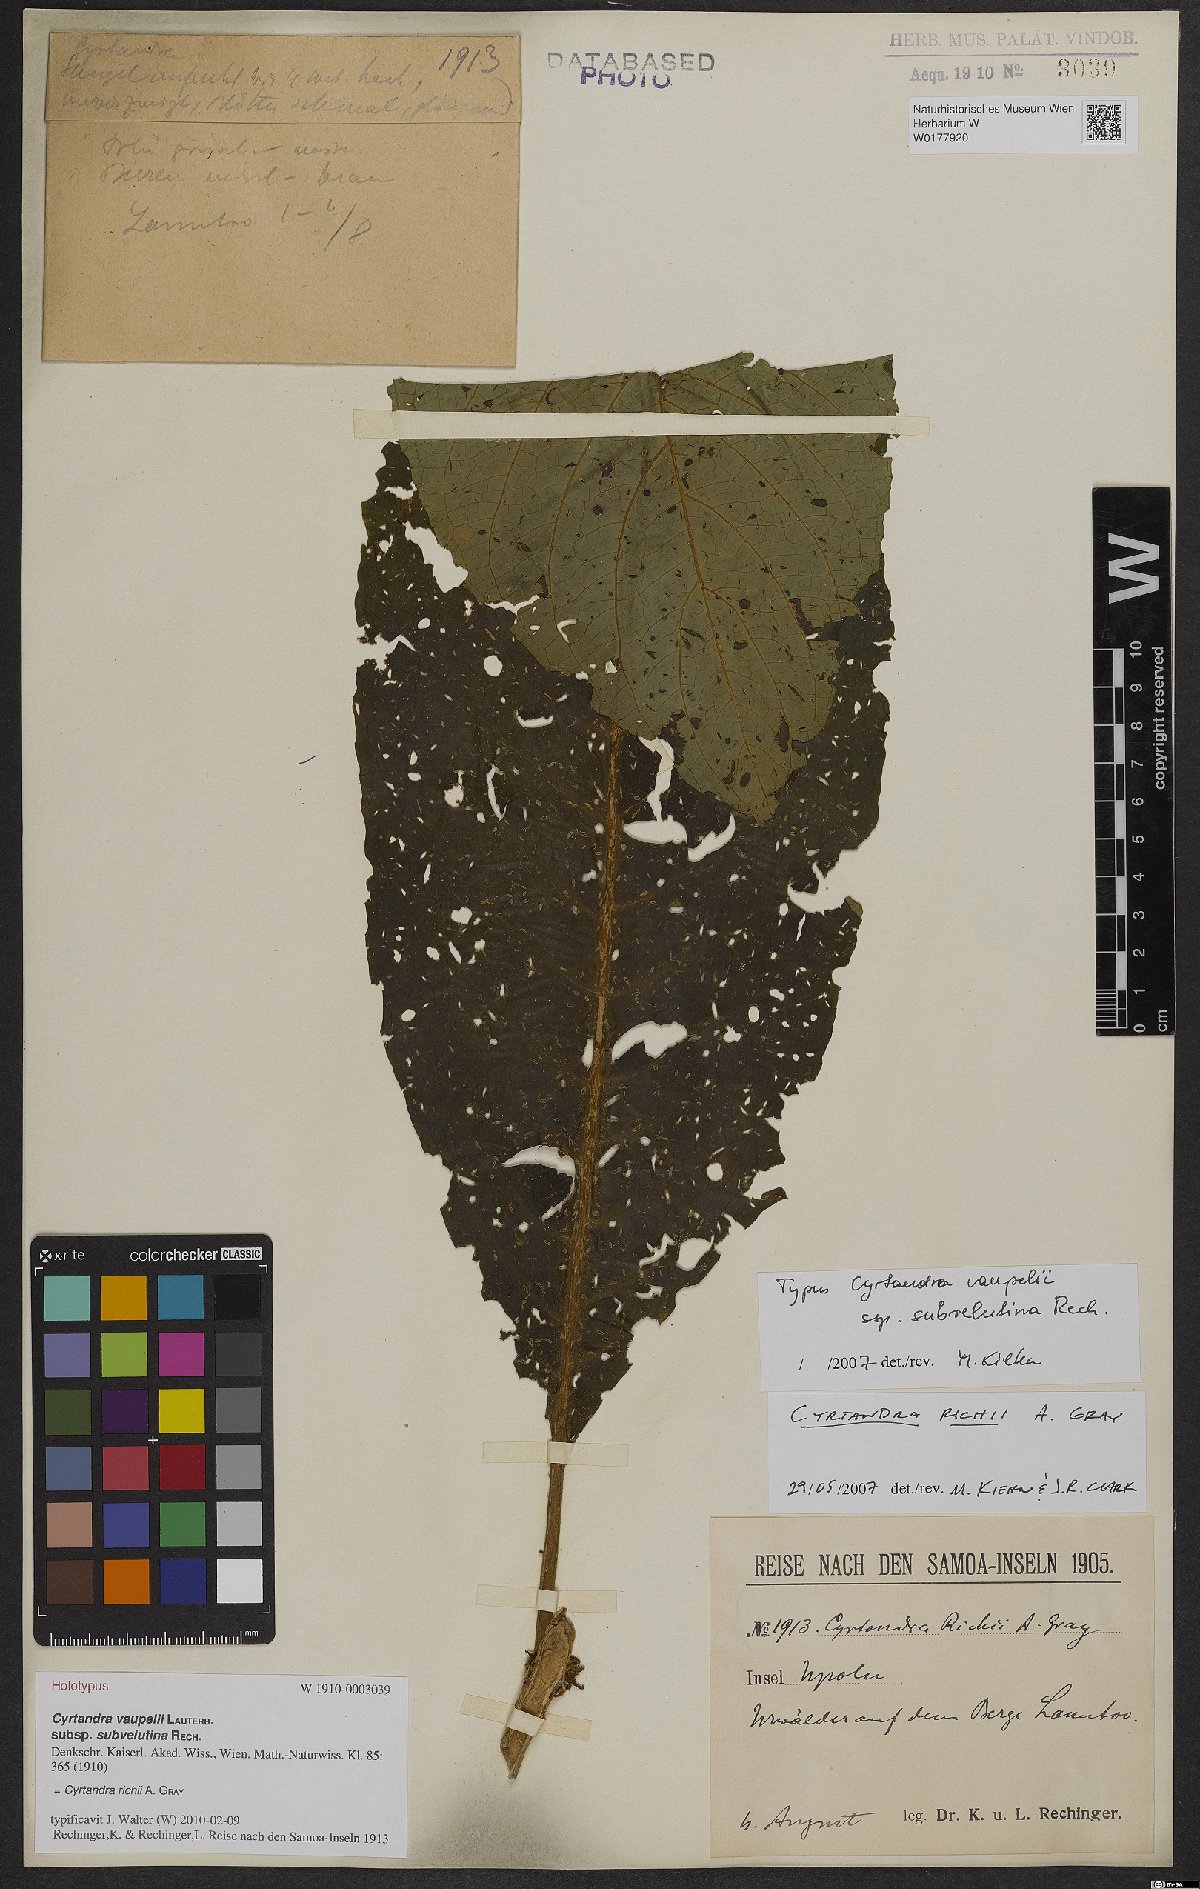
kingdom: Plantae
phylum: Tracheophyta
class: Magnoliopsida
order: Lamiales
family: Gesneriaceae
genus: Cyrtandra
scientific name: Cyrtandra richii
